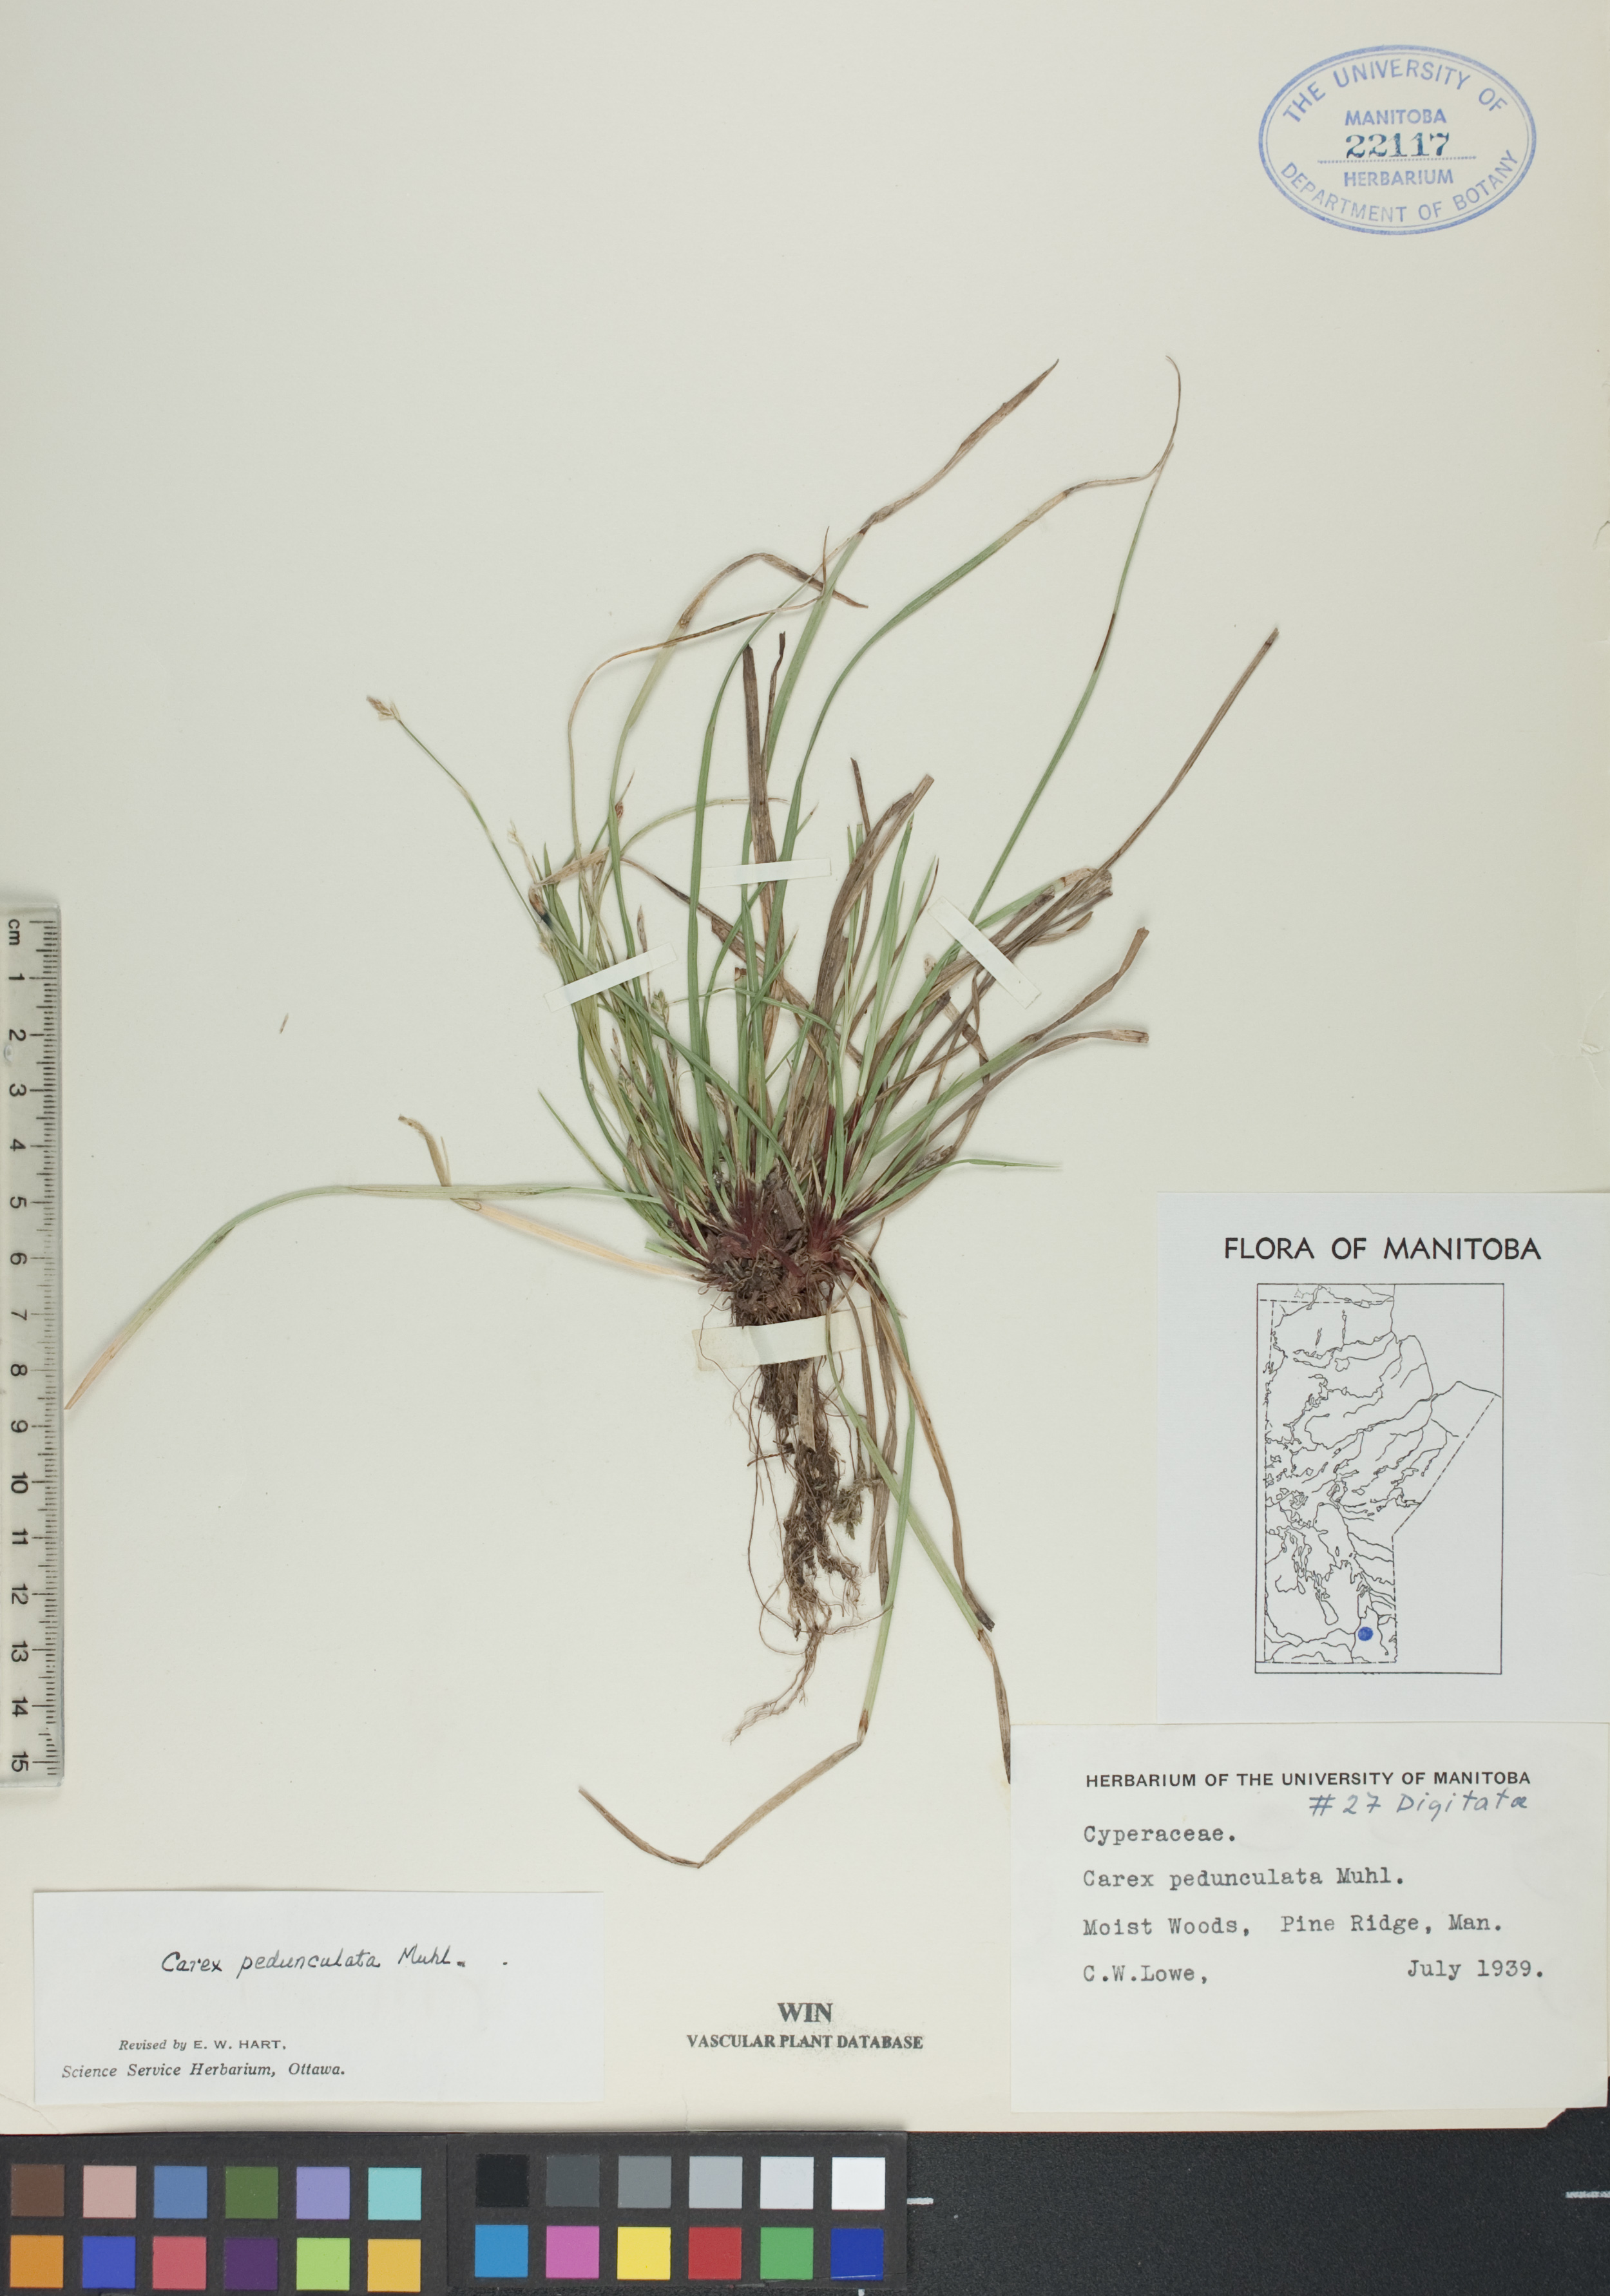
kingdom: Plantae
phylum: Tracheophyta
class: Liliopsida
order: Poales
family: Cyperaceae
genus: Carex
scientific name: Carex pedunculata
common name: Pedunculate sedge
